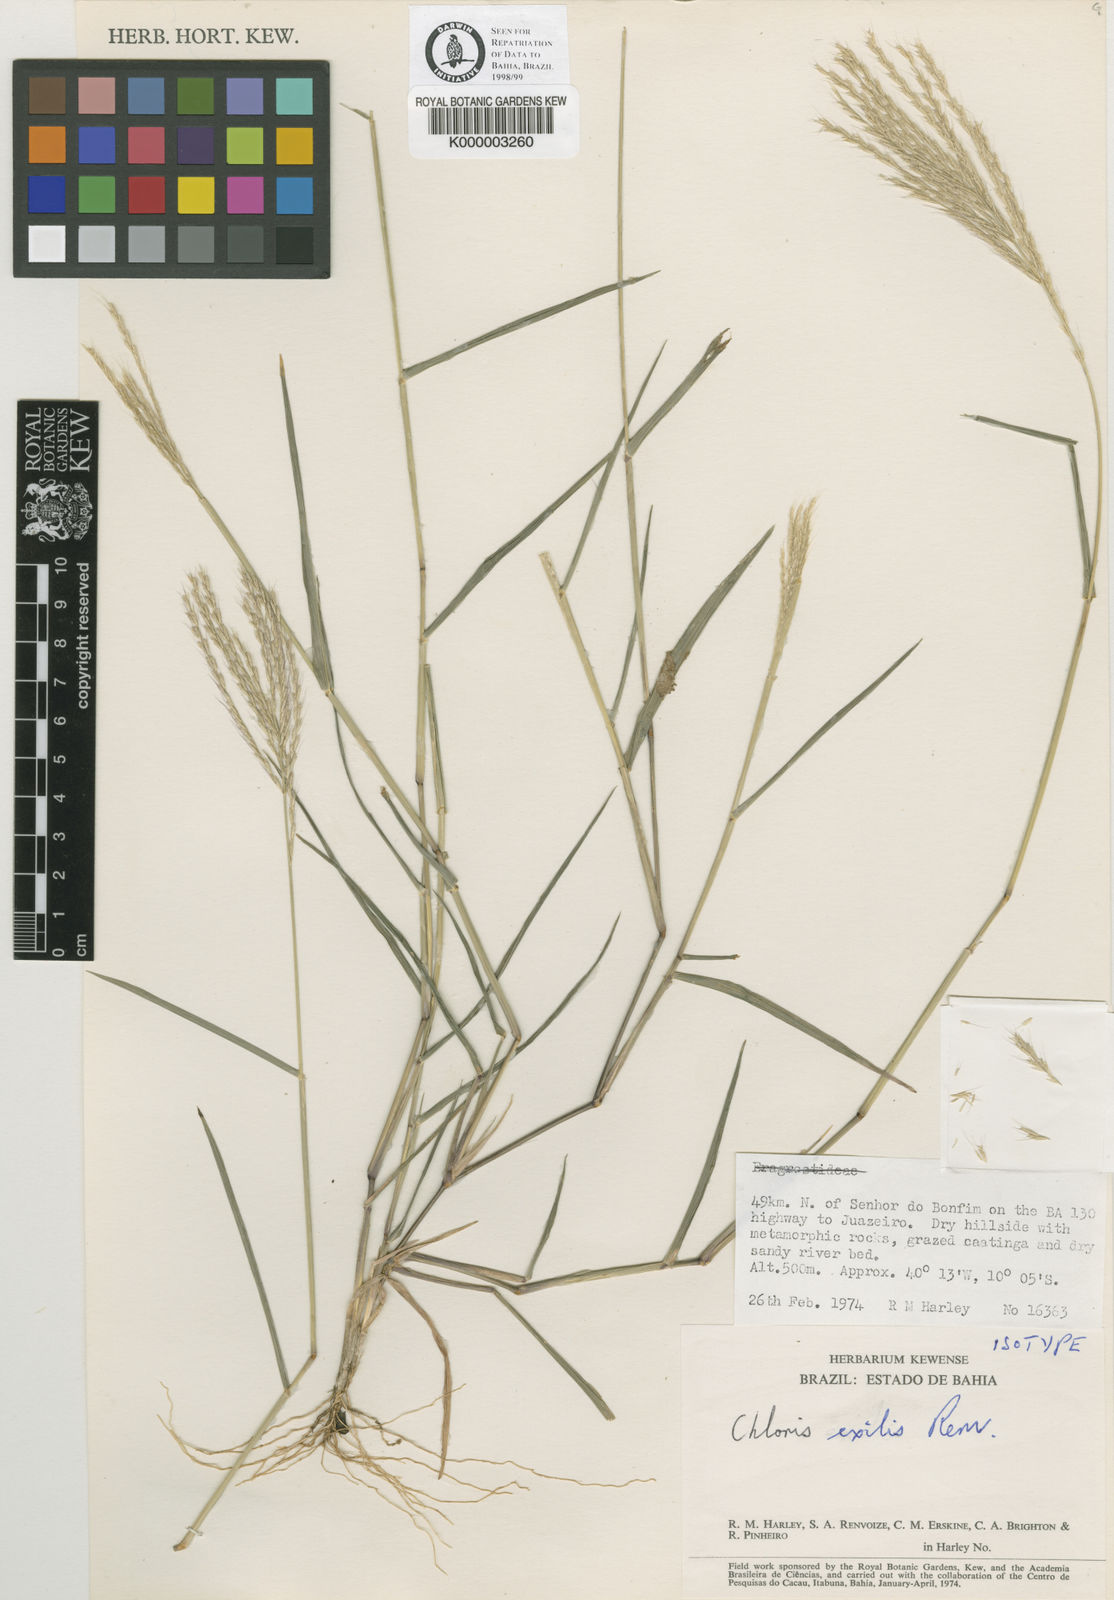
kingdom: Plantae
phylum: Tracheophyta
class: Liliopsida
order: Poales
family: Poaceae
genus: Leptochloa
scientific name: Leptochloa exilis
